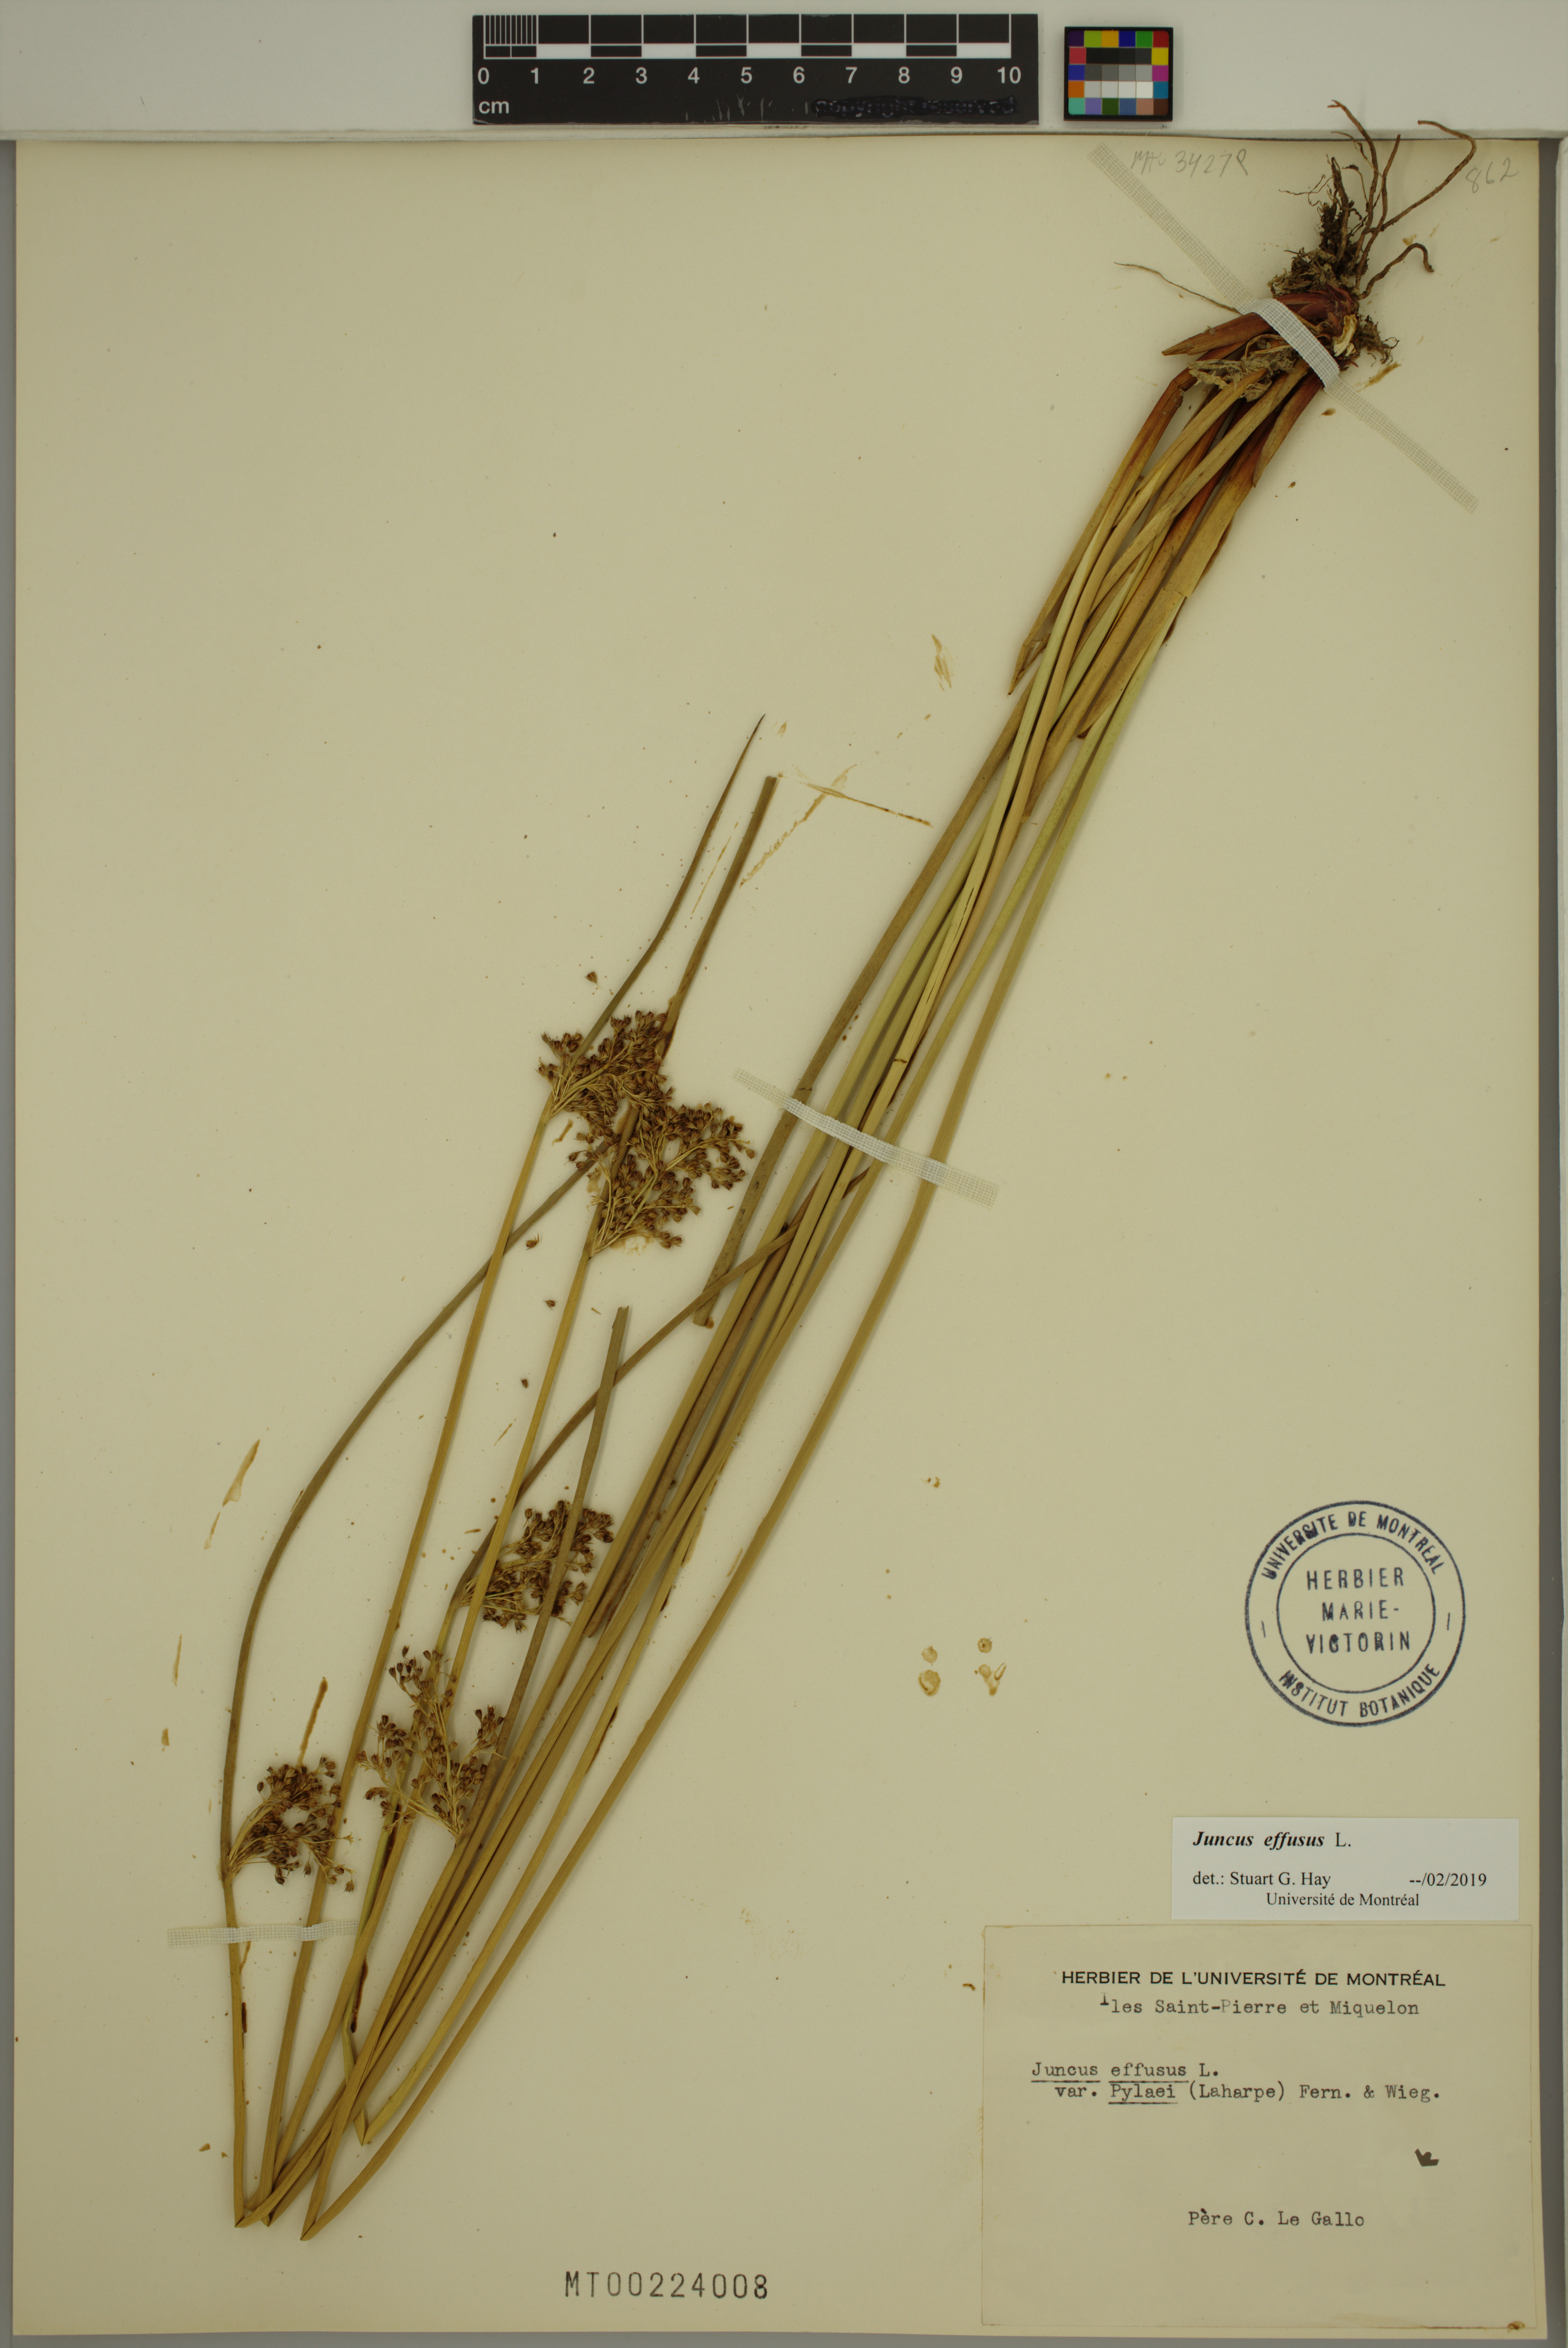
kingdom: Plantae
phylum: Tracheophyta
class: Liliopsida
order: Poales
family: Juncaceae
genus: Juncus
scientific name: Juncus effusus
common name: Soft rush
